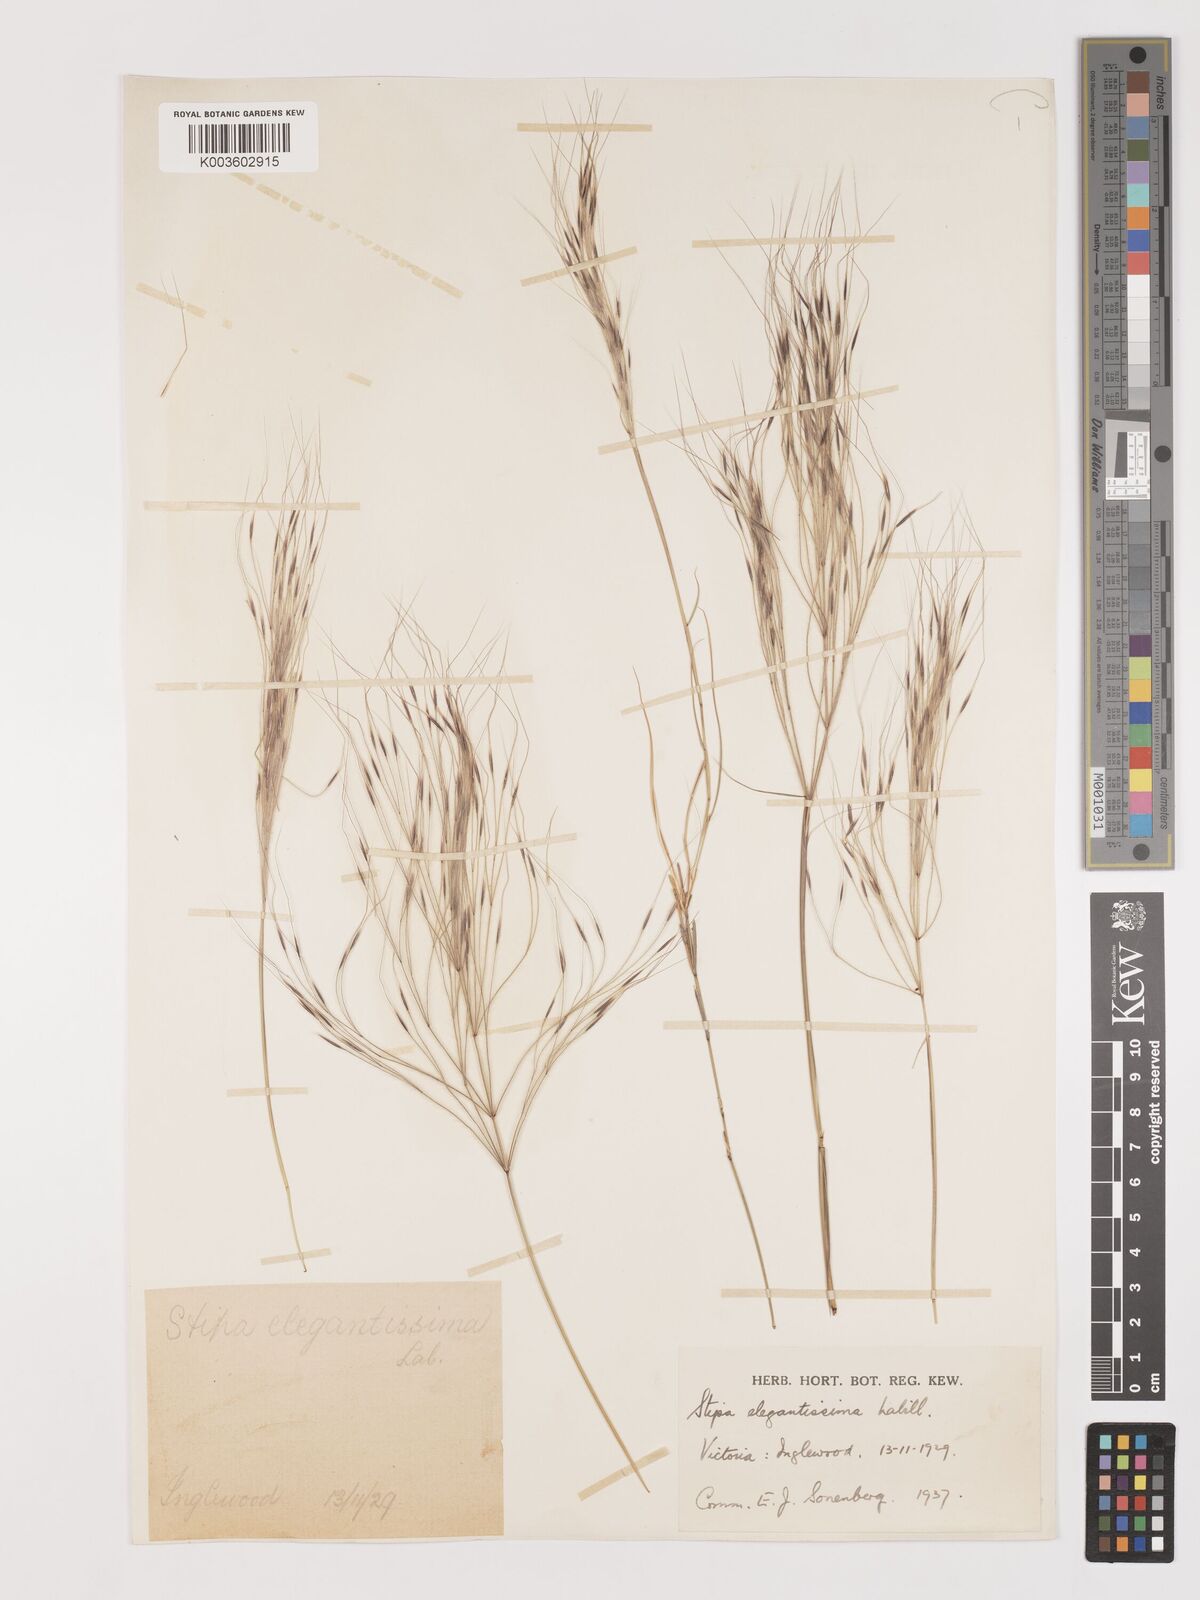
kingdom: Plantae
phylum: Tracheophyta
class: Liliopsida
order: Poales
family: Poaceae
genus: Austrostipa
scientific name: Austrostipa elegantissima
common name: Feather spear grass
